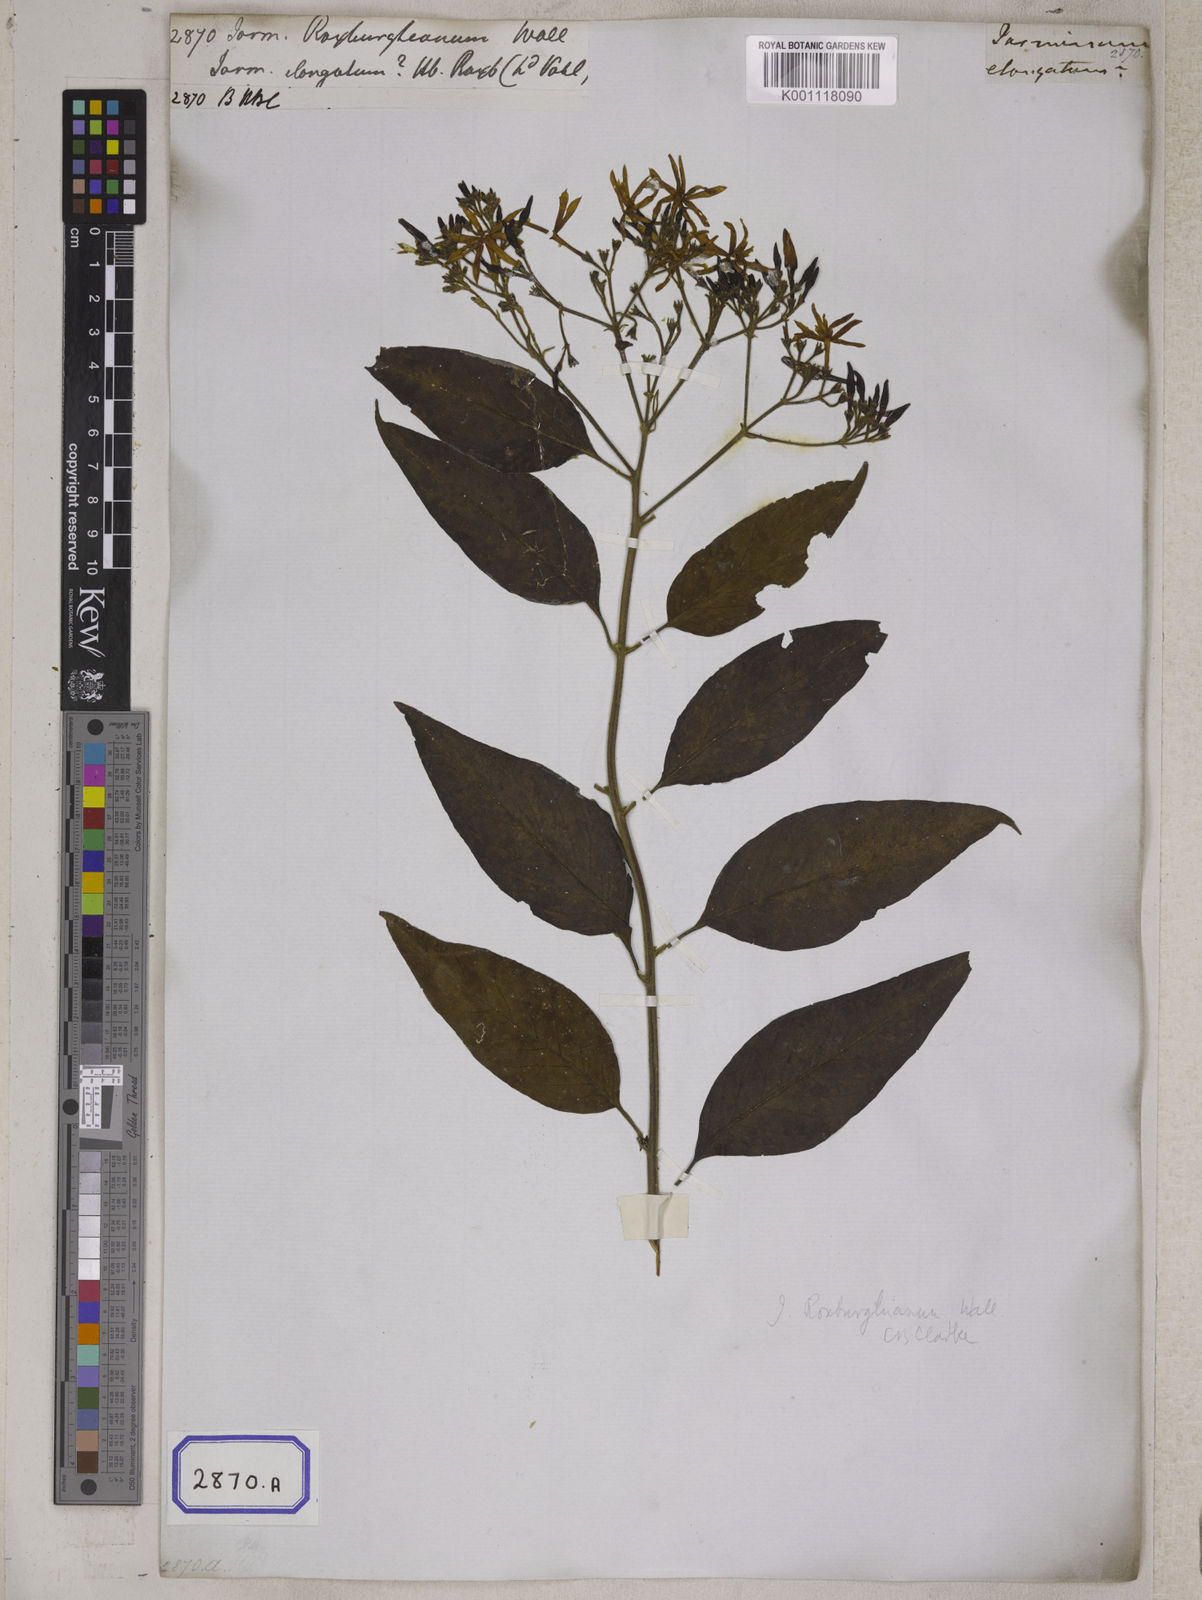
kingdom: Plantae
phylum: Tracheophyta
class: Magnoliopsida
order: Lamiales
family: Oleaceae
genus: Jasminum
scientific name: Jasminum
